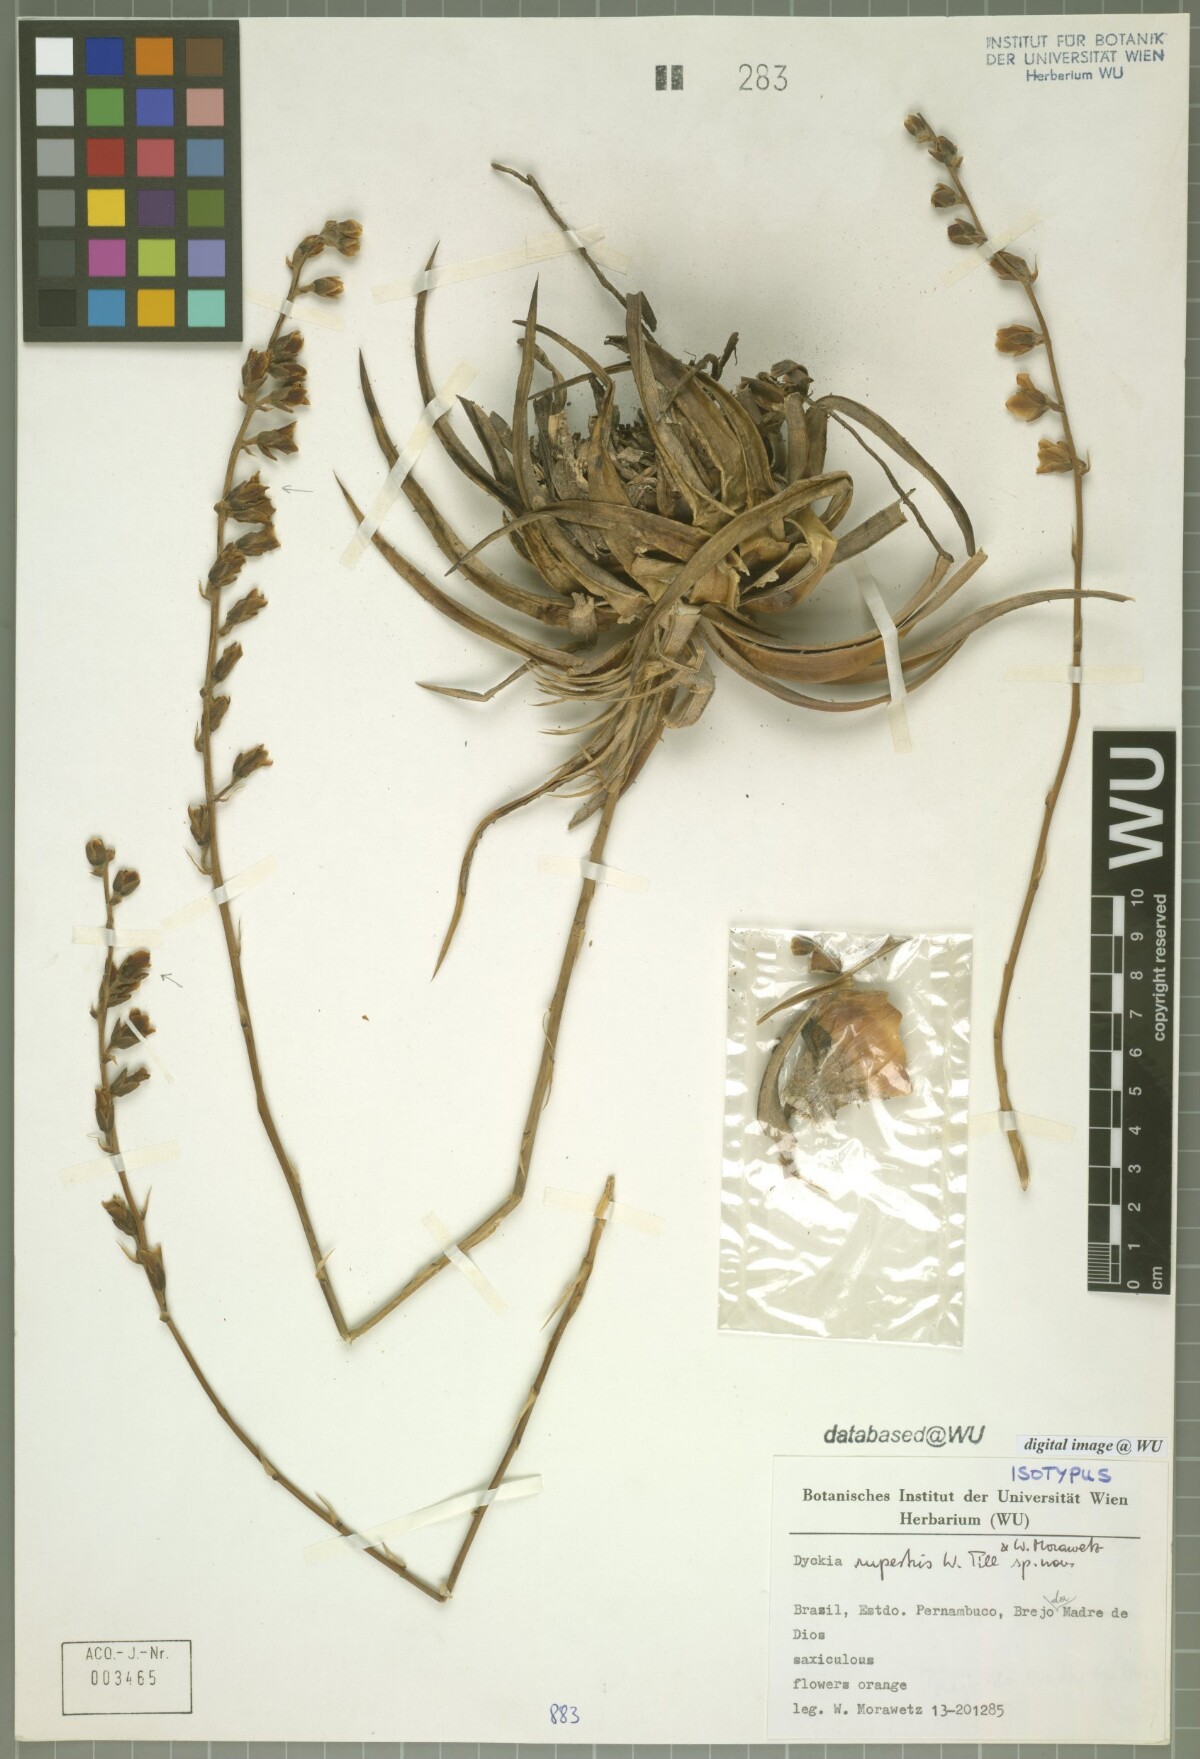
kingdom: Plantae
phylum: Tracheophyta
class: Liliopsida
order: Poales
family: Bromeliaceae
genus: Dyckia
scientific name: Dyckia rupestris
